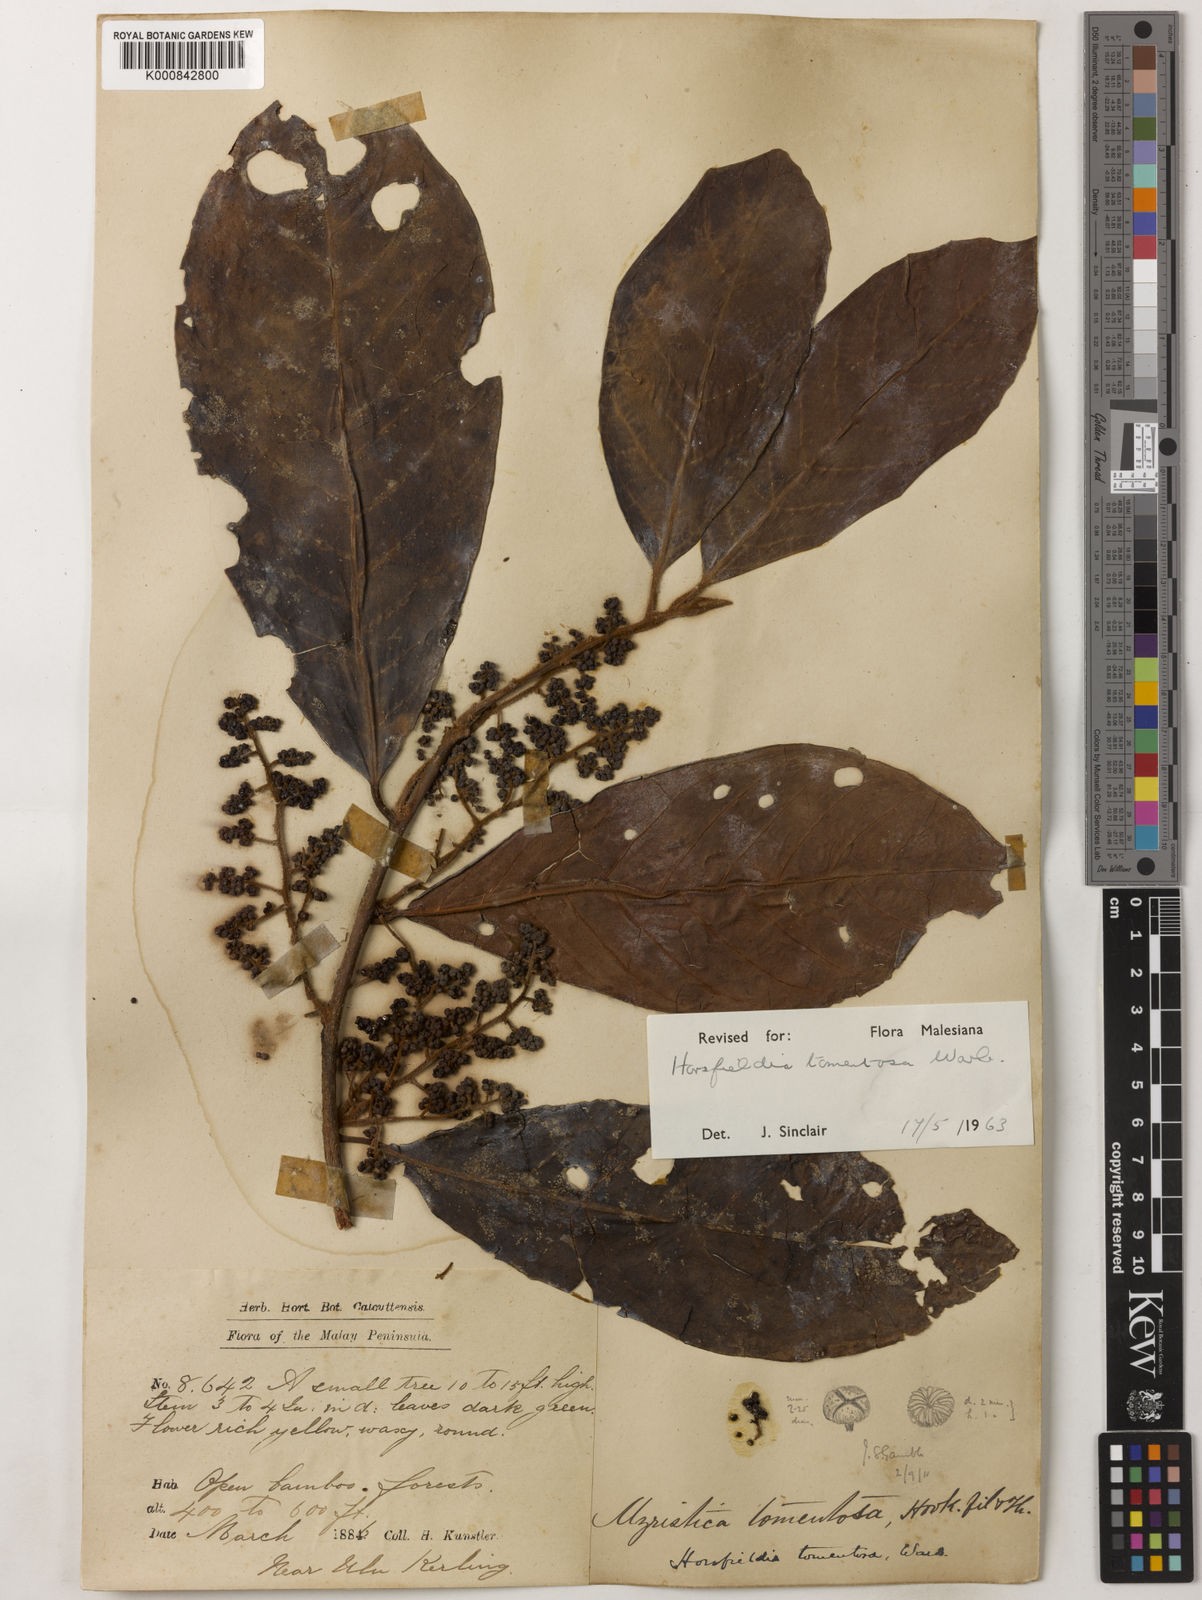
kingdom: Plantae
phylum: Tracheophyta
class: Magnoliopsida
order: Magnoliales
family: Myristicaceae
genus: Horsfieldia
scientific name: Horsfieldia tomentosa
